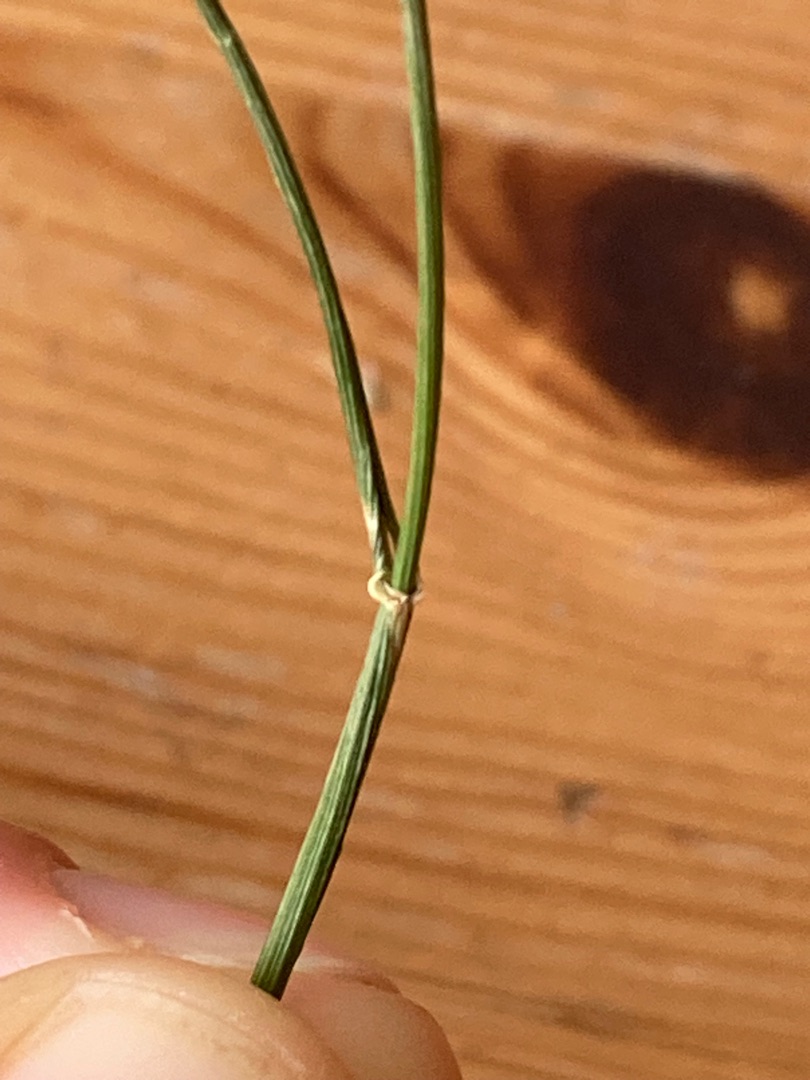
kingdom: Plantae
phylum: Tracheophyta
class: Liliopsida
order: Poales
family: Poaceae
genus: Elymus
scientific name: Elymus repens
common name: Almindelig kvik
